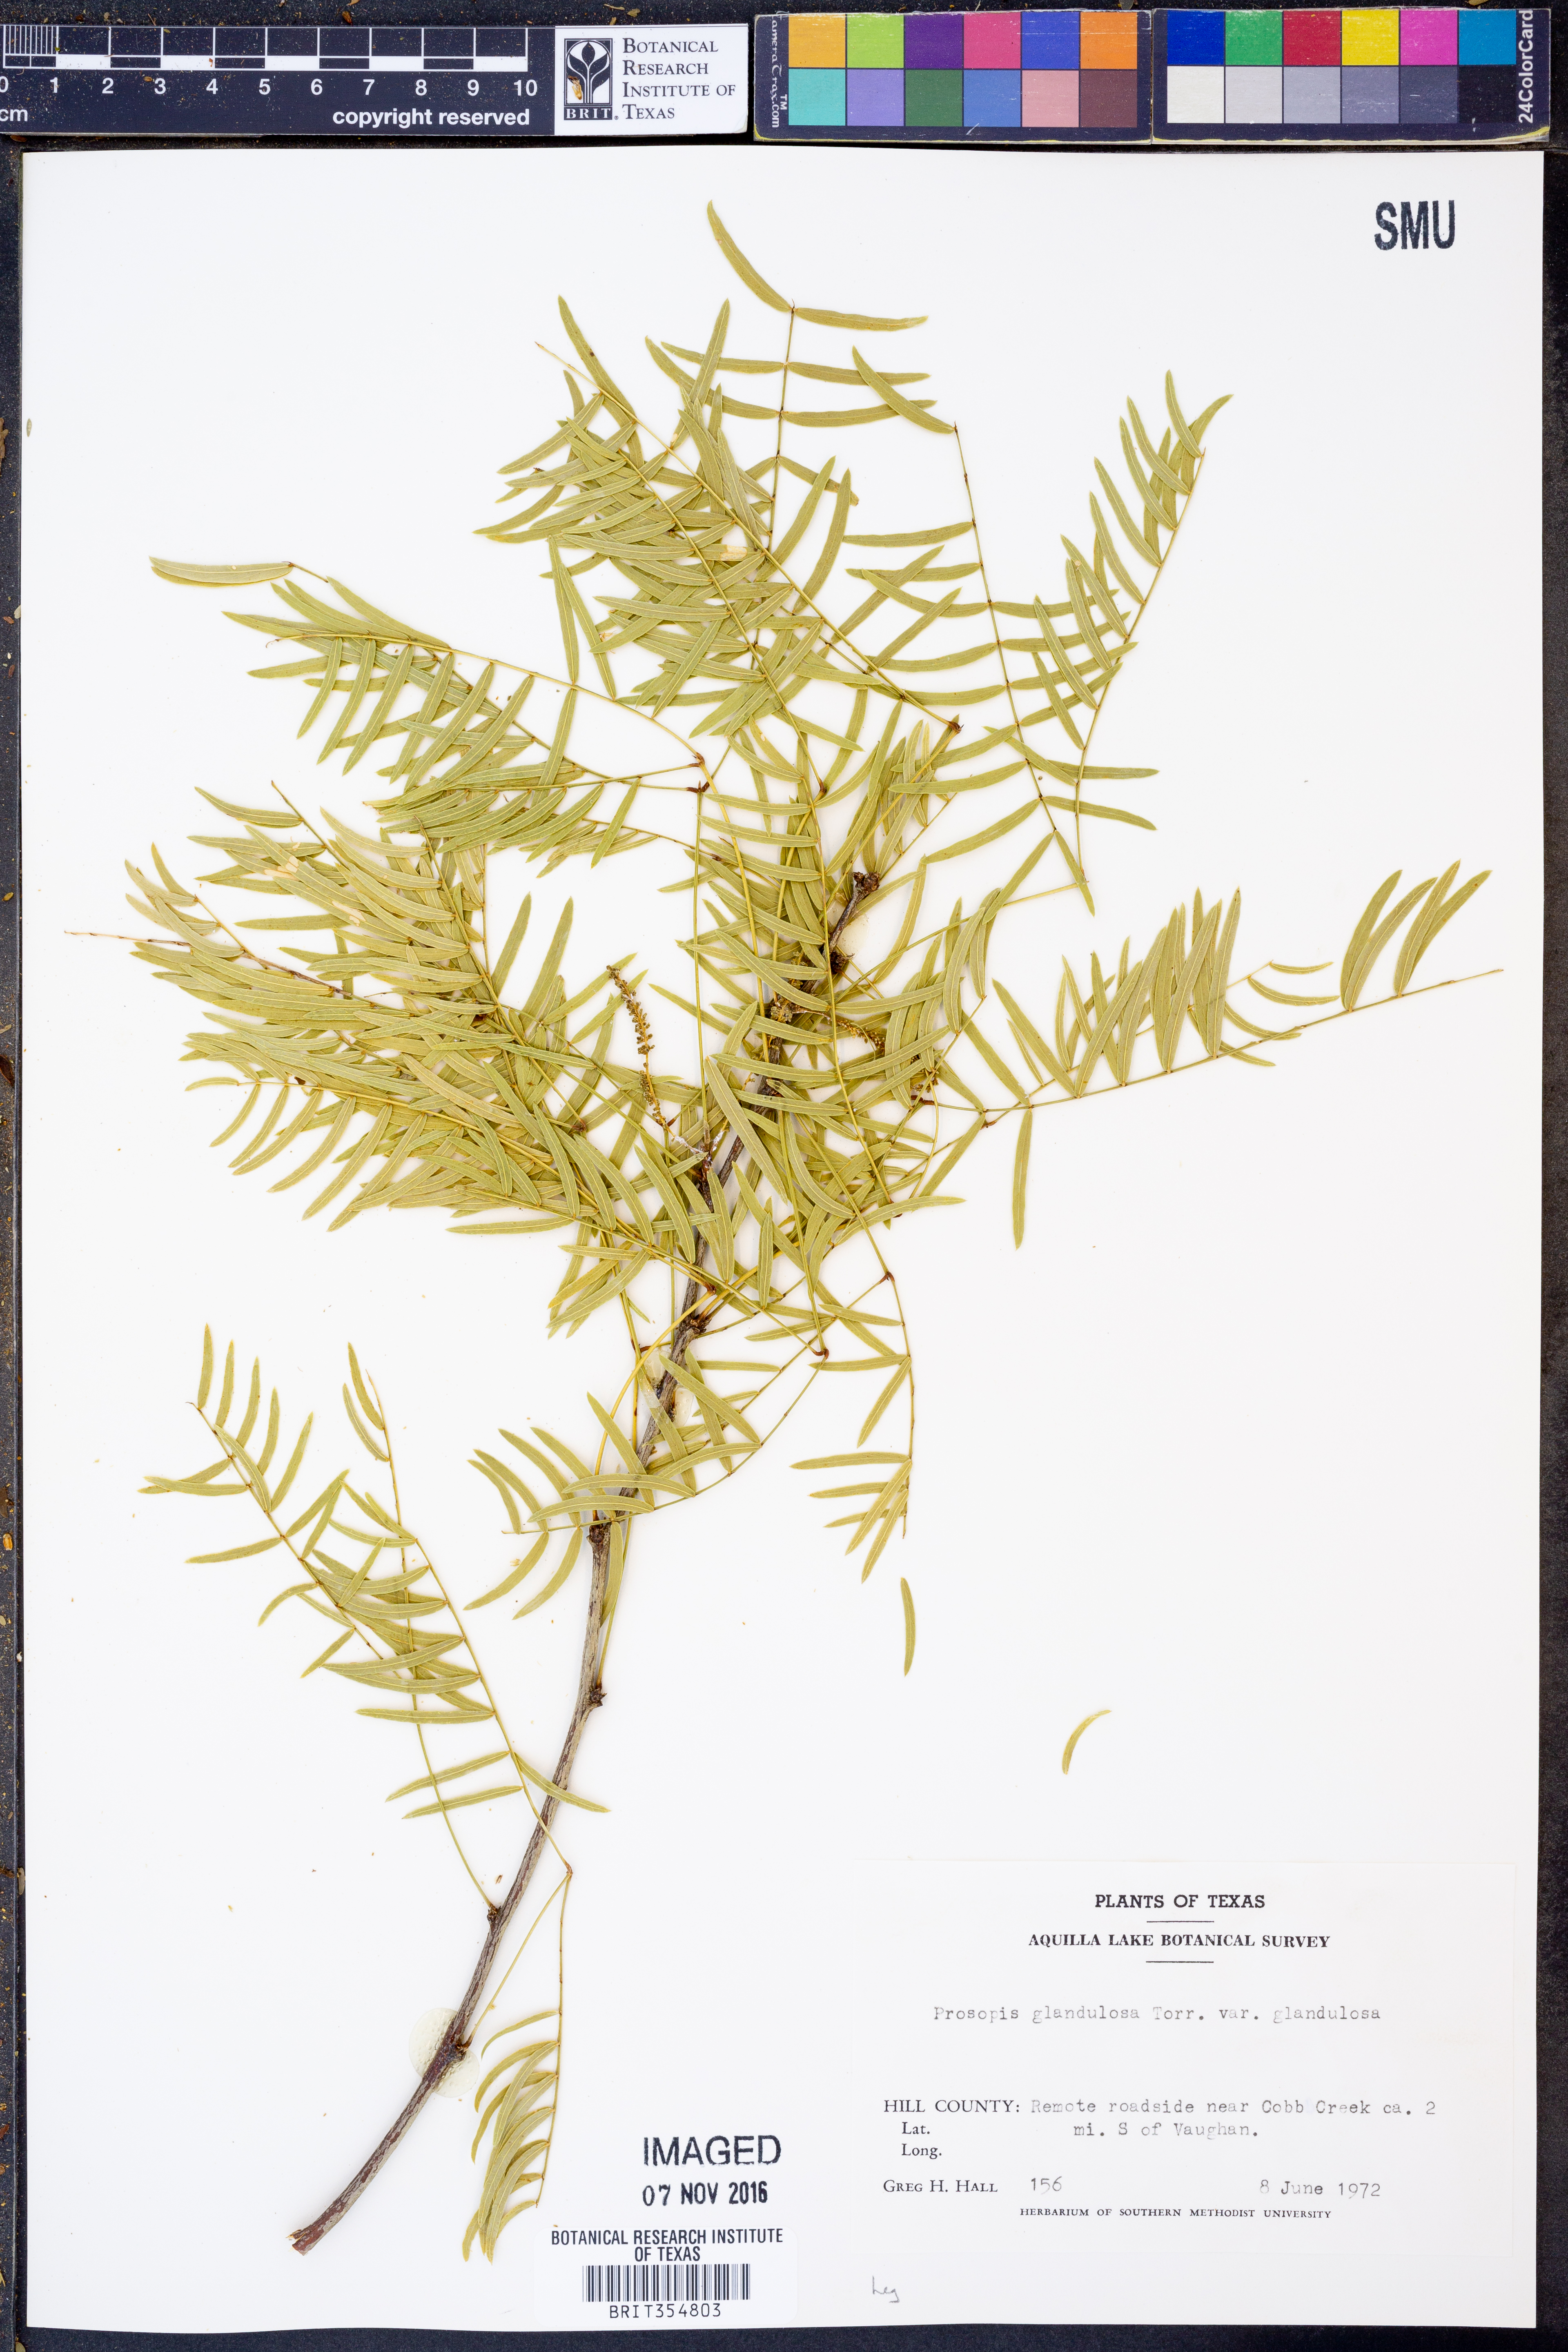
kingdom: Plantae
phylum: Tracheophyta
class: Magnoliopsida
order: Fabales
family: Fabaceae
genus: Prosopis
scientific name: Prosopis glandulosa
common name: Honey mesquite
